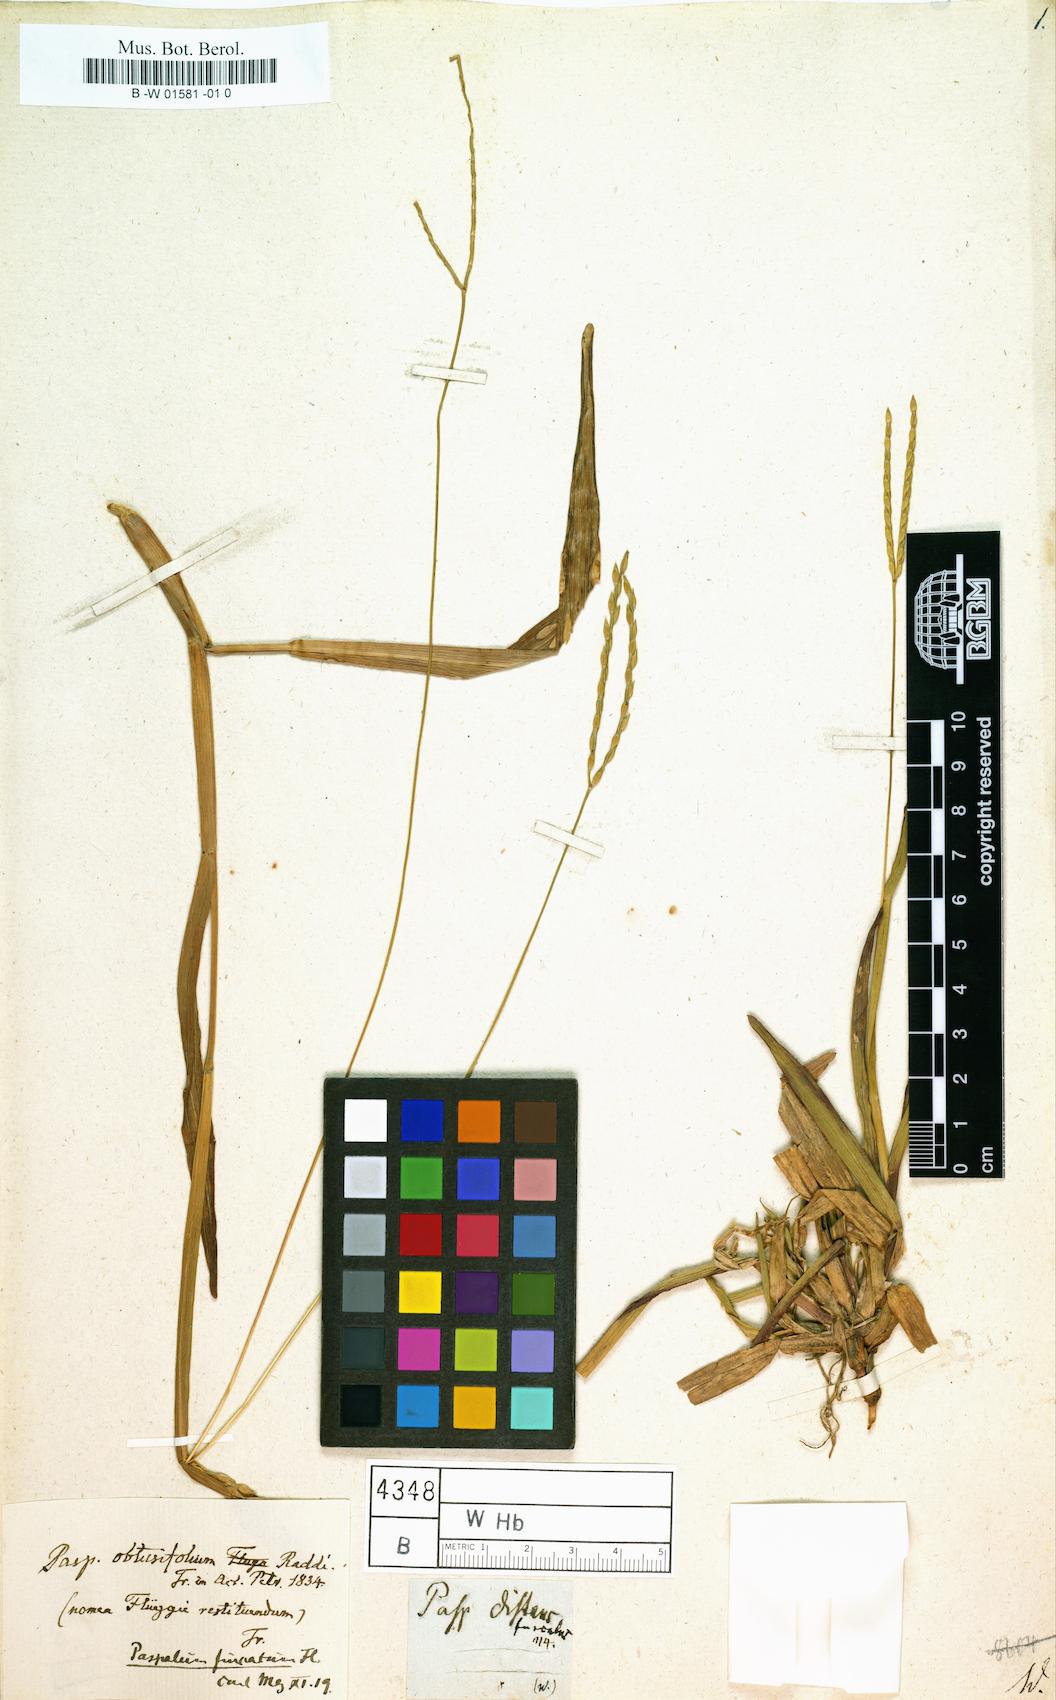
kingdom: Plantae
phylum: Tracheophyta
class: Liliopsida
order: Poales
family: Poaceae
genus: Paspalus
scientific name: Paspalus
